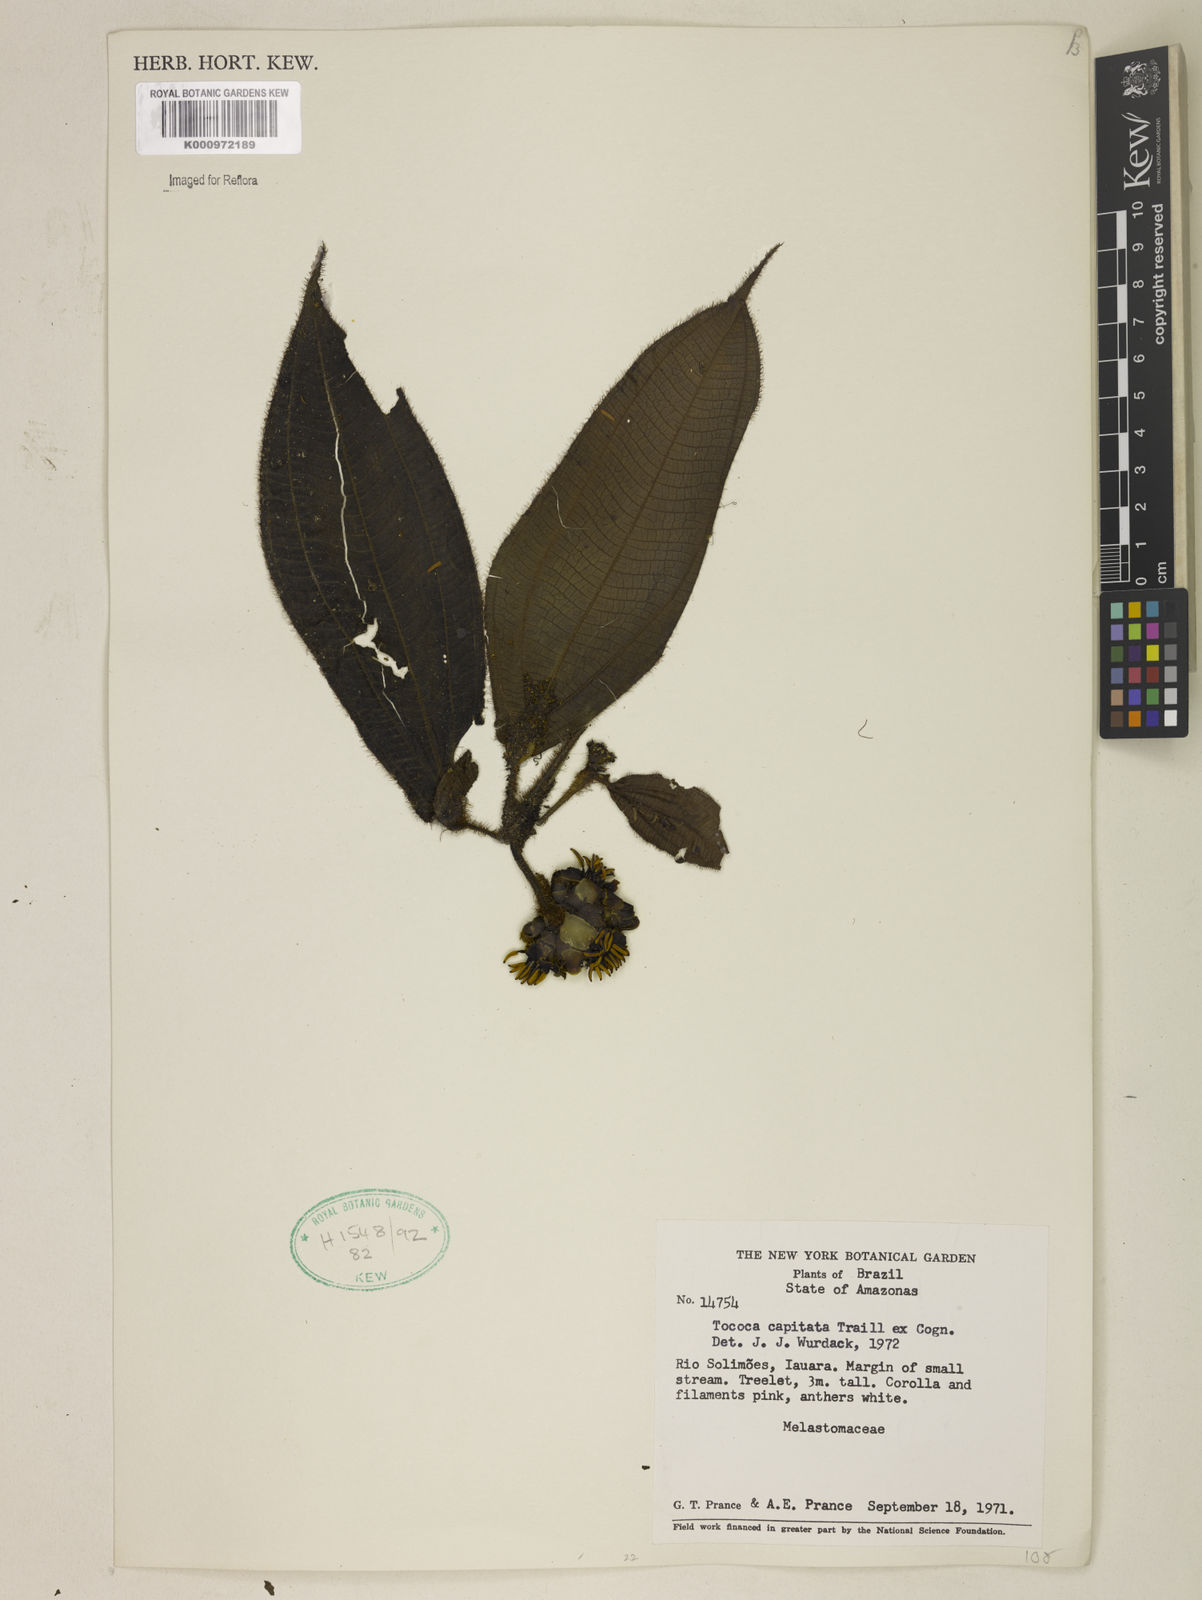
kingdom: Plantae
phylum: Tracheophyta
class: Magnoliopsida
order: Myrtales
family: Melastomataceae
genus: Miconia
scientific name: Miconia
